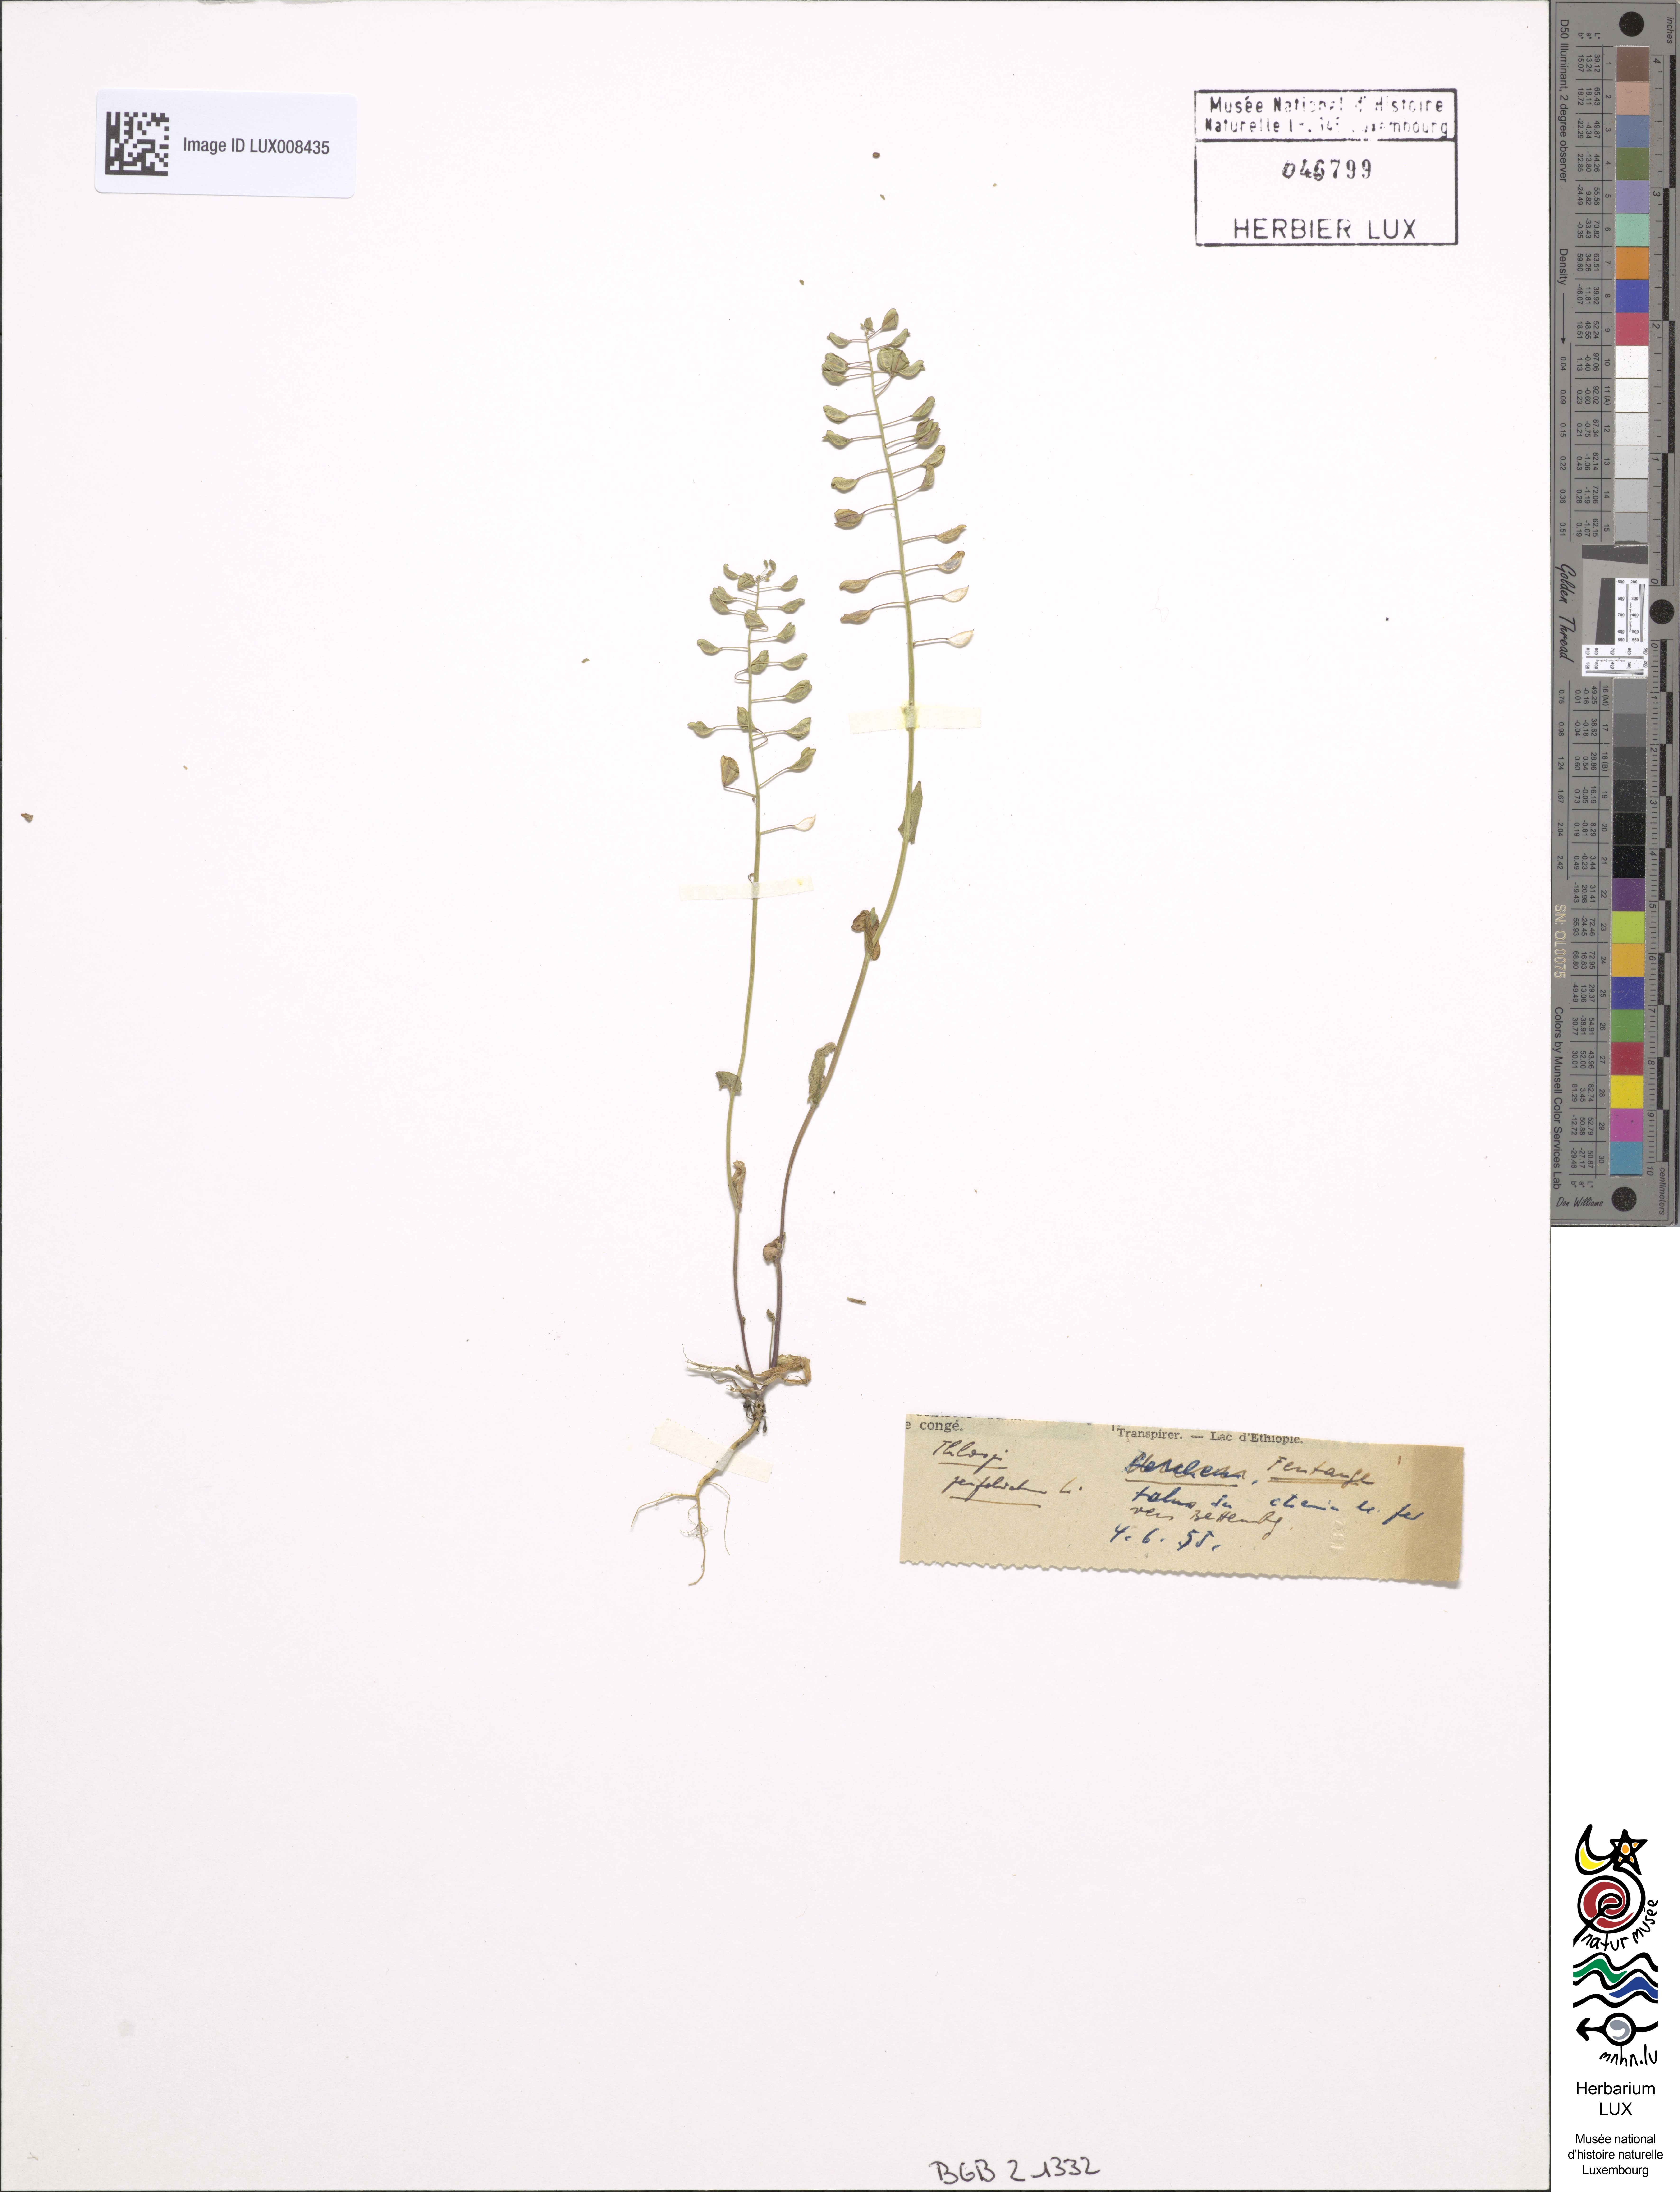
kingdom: Plantae
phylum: Tracheophyta
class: Magnoliopsida
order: Brassicales
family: Brassicaceae
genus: Noccaea
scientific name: Noccaea perfoliata
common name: Perfoliate pennycress
